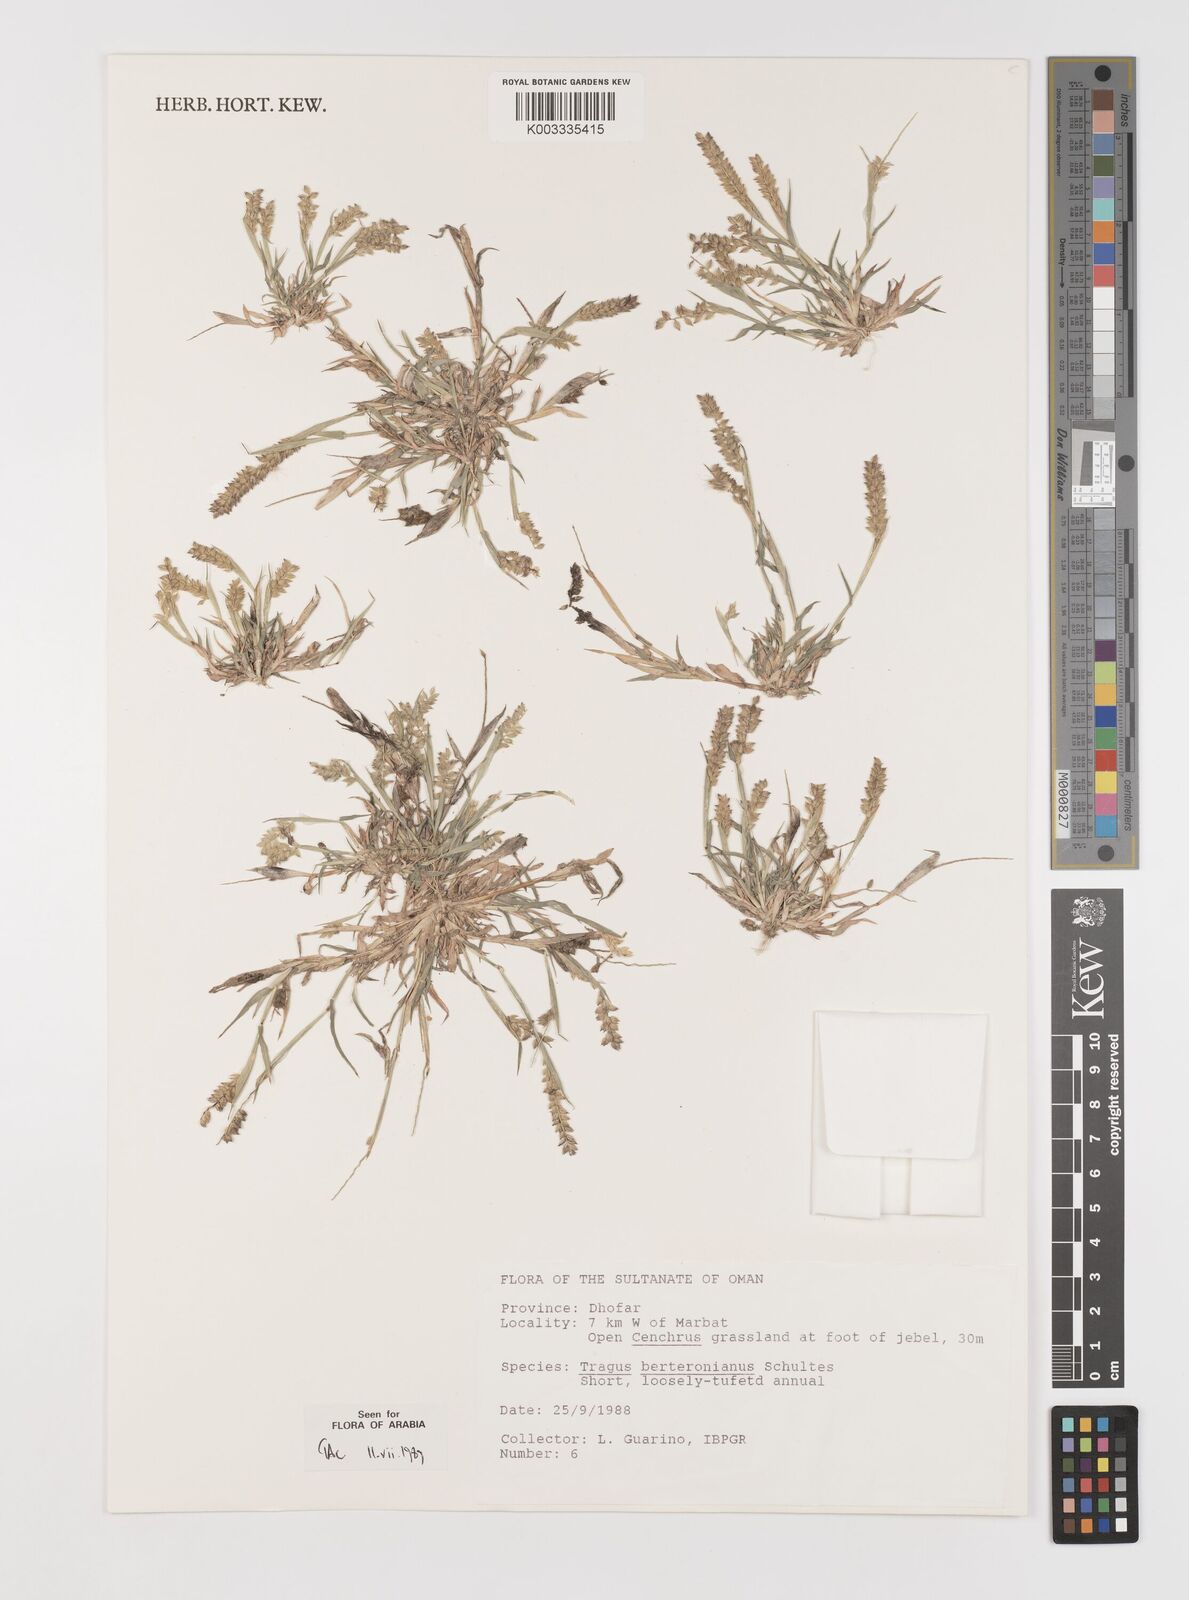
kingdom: Plantae
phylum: Tracheophyta
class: Liliopsida
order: Poales
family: Poaceae
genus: Tragus
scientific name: Tragus berteronianus
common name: African bur-grass
